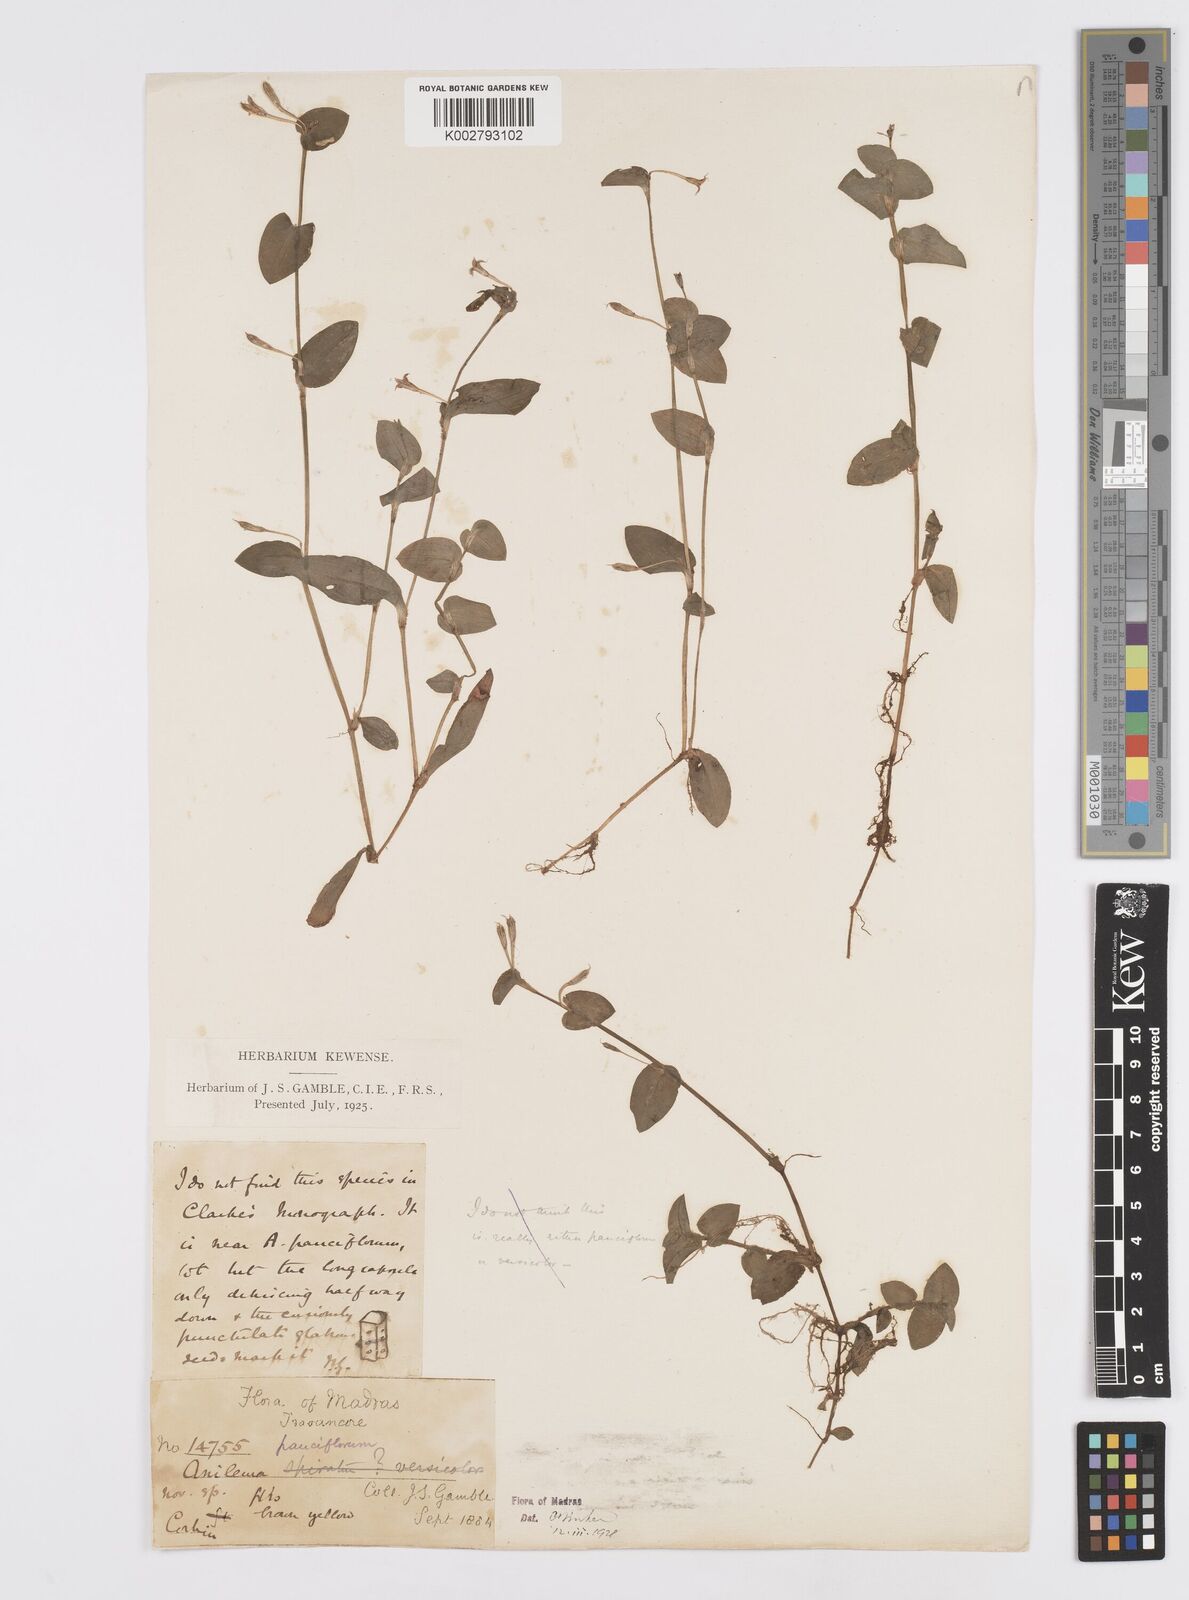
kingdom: Plantae
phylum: Tracheophyta
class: Liliopsida
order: Commelinales
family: Commelinaceae
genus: Murdannia
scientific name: Murdannia pauciflora
